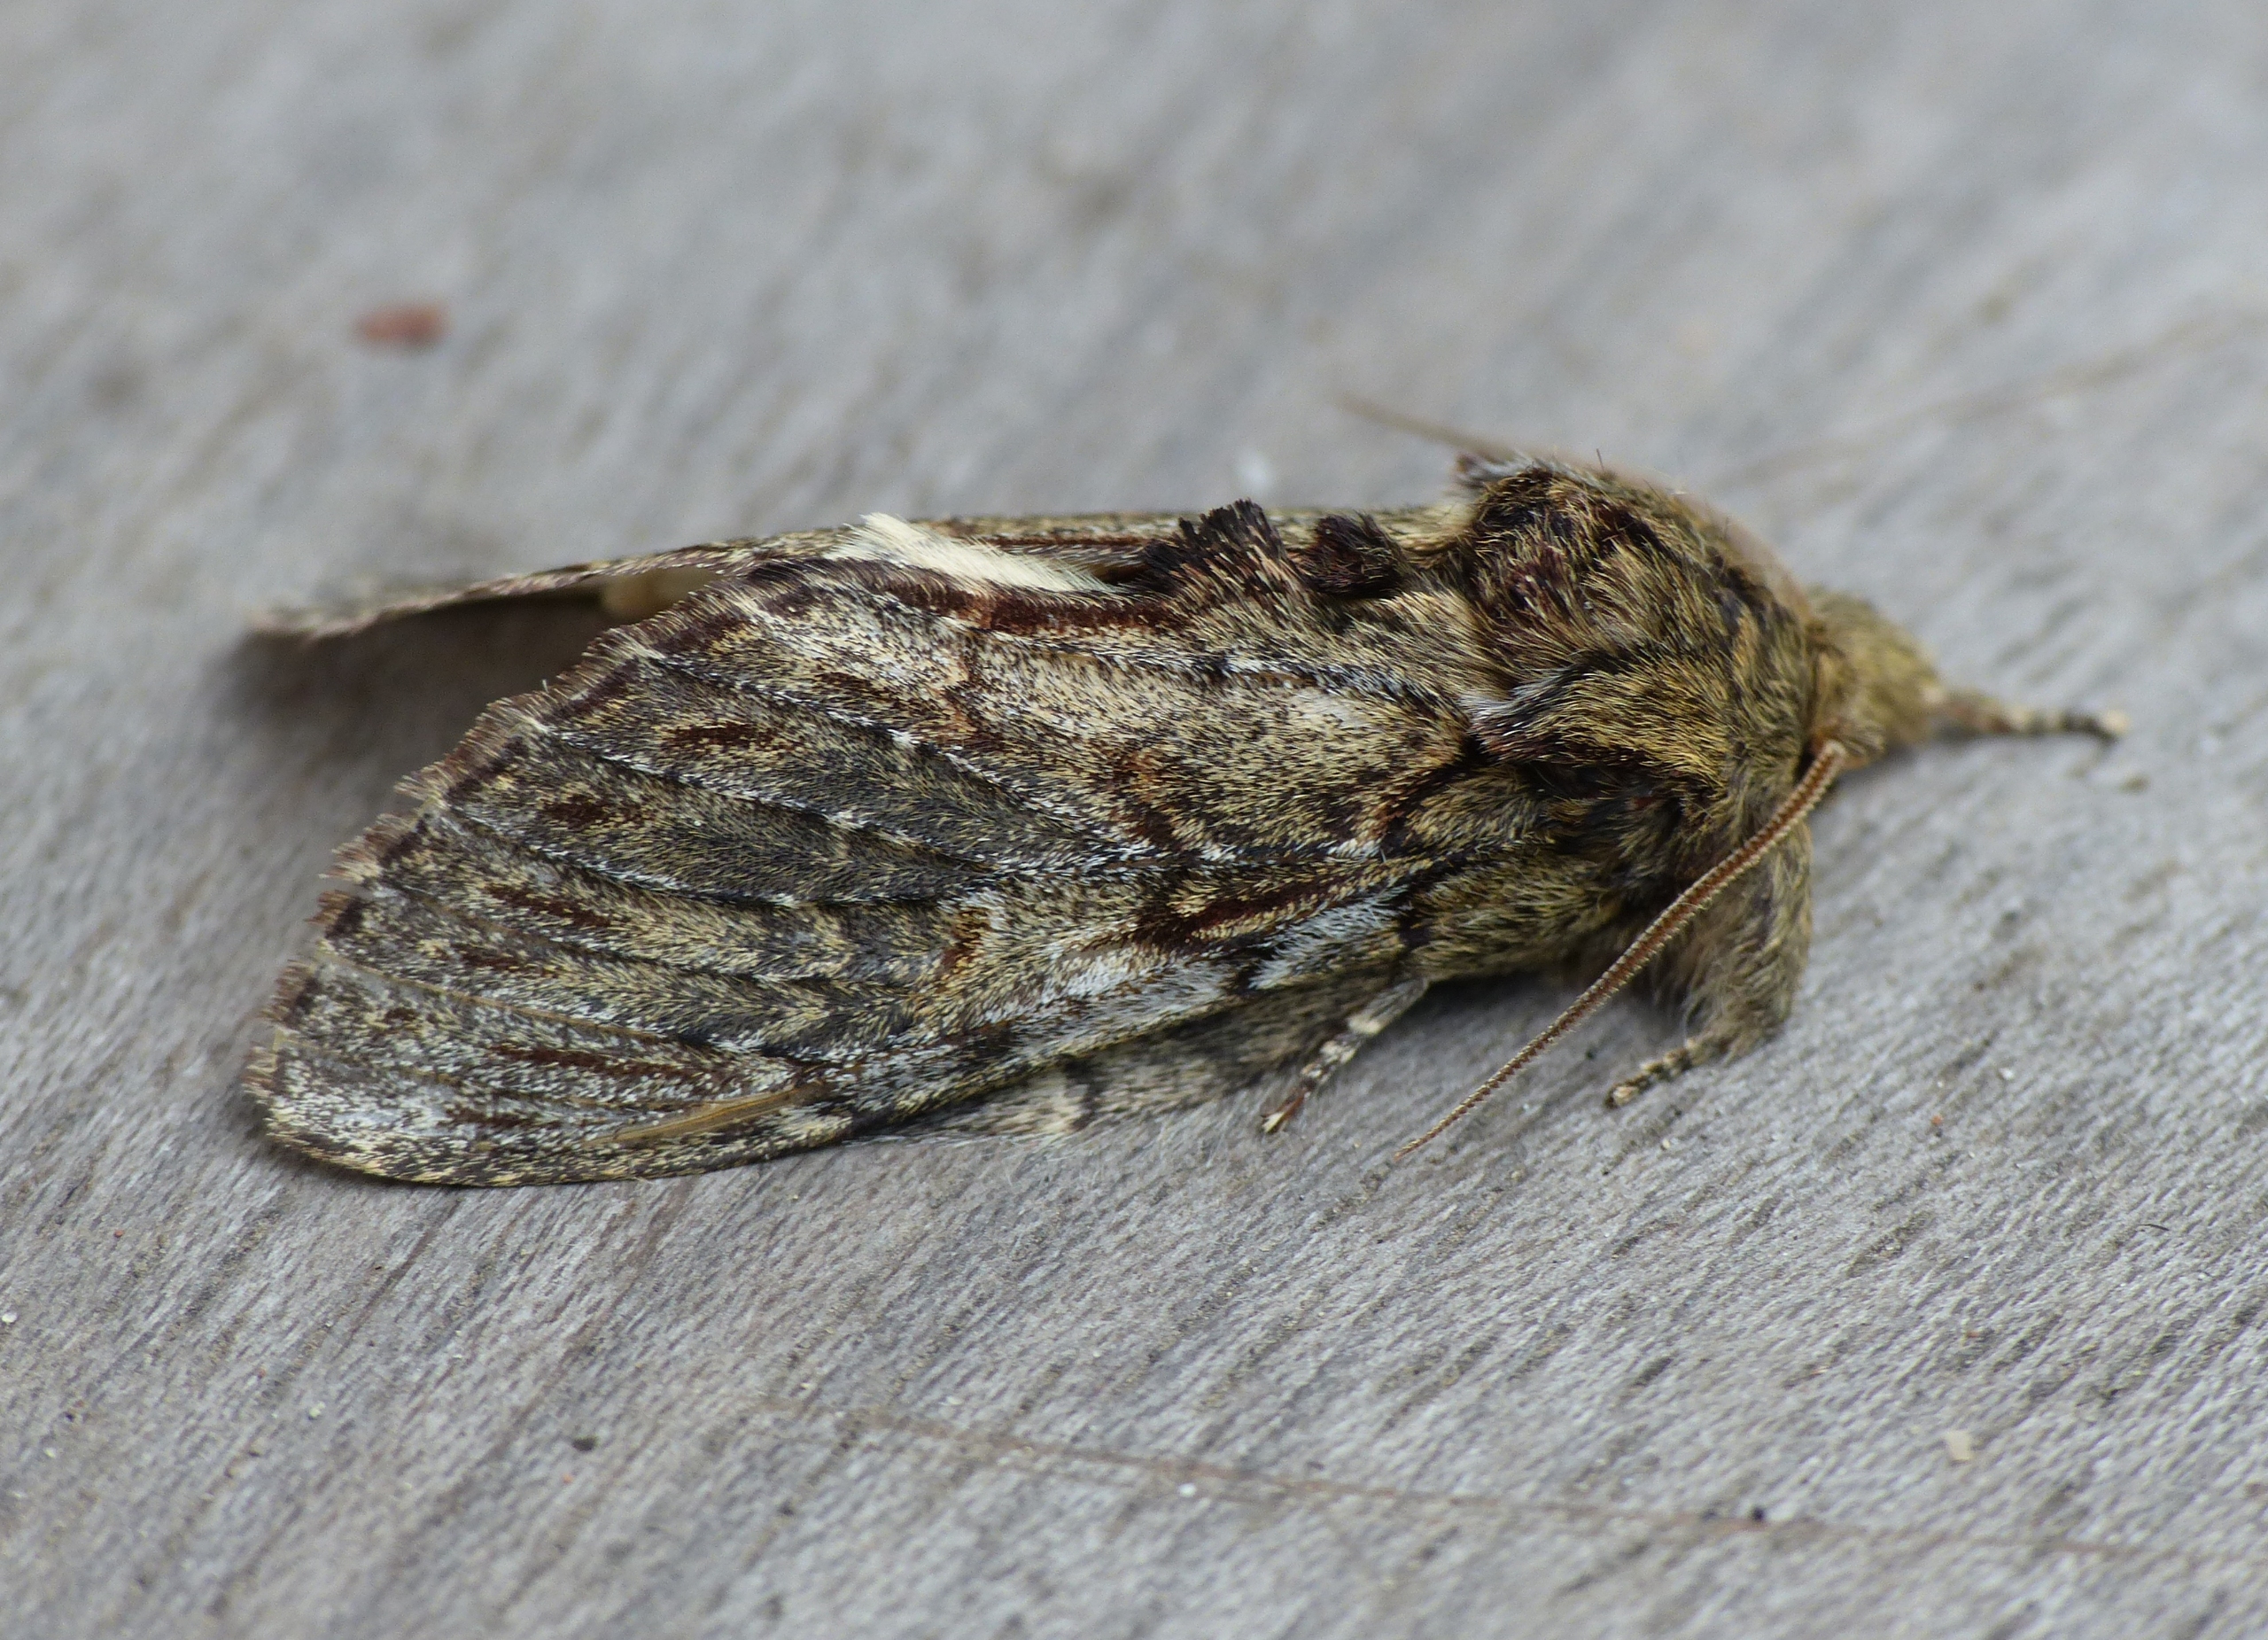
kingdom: Animalia
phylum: Arthropoda
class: Insecta
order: Lepidoptera
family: Notodontidae
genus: Peridea
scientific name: Peridea anceps
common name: Egetandspinder
